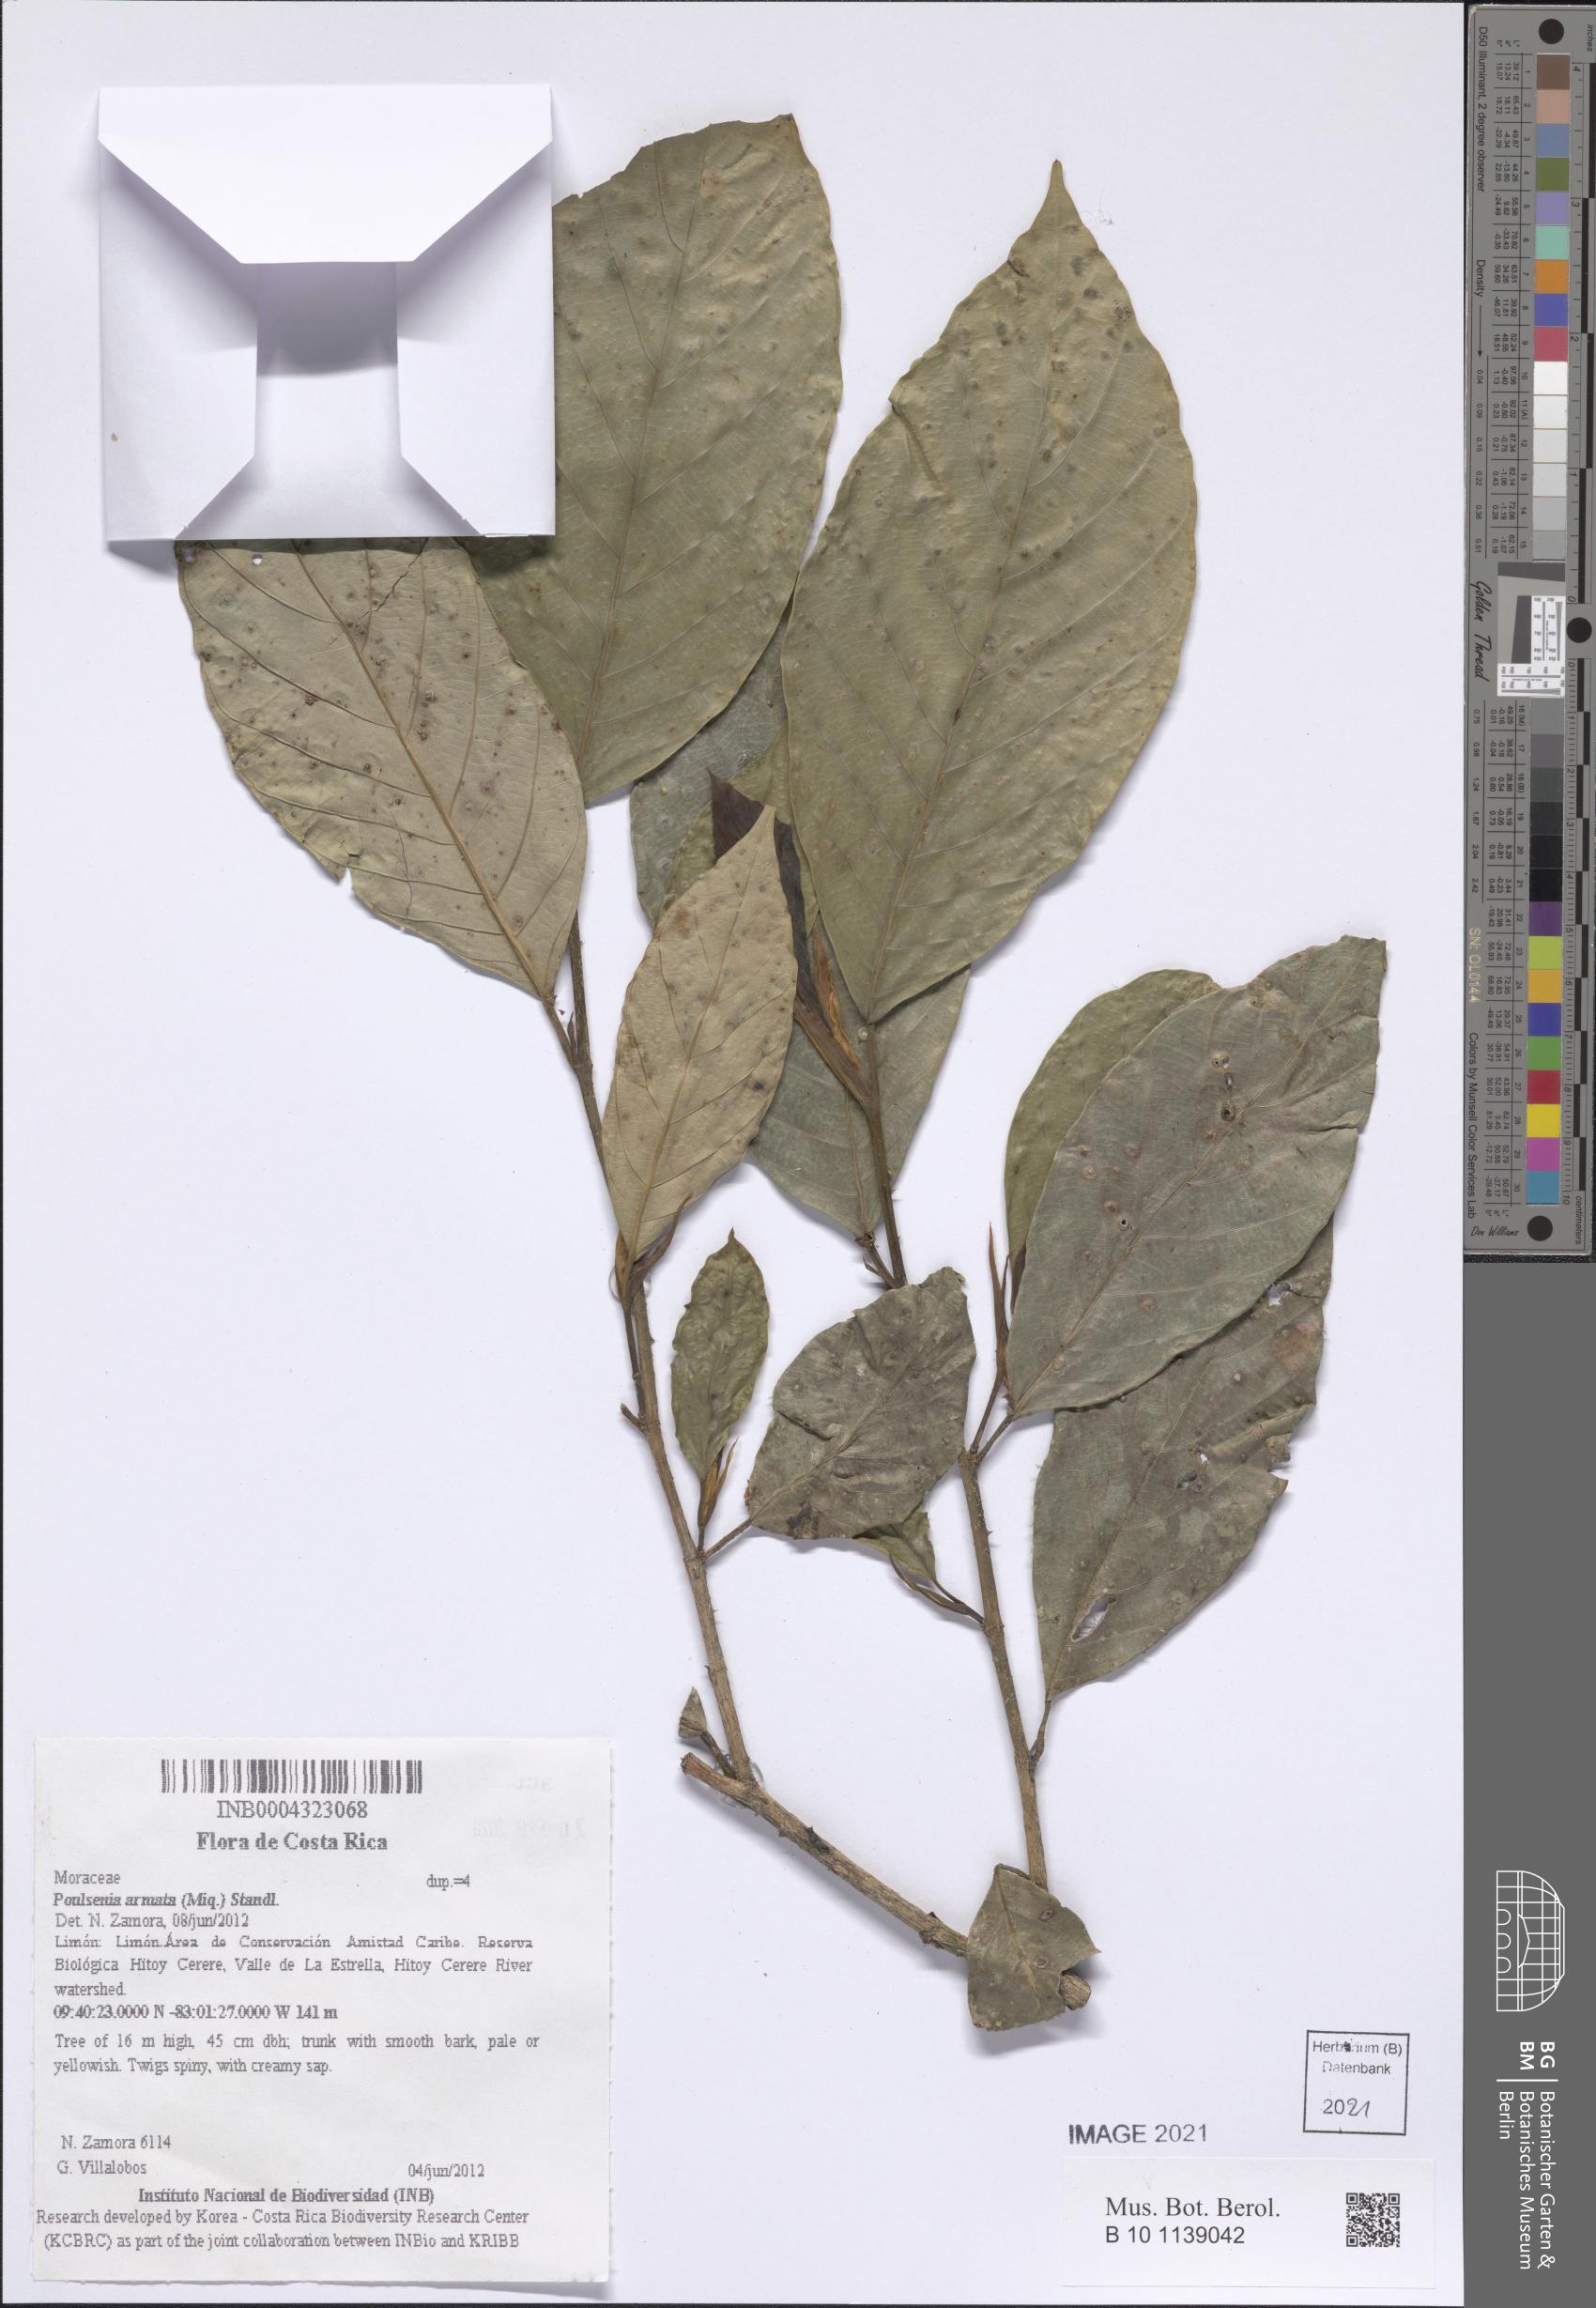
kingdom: Plantae
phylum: Tracheophyta
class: Magnoliopsida
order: Rosales
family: Moraceae
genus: Poulsenia
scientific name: Poulsenia armata
